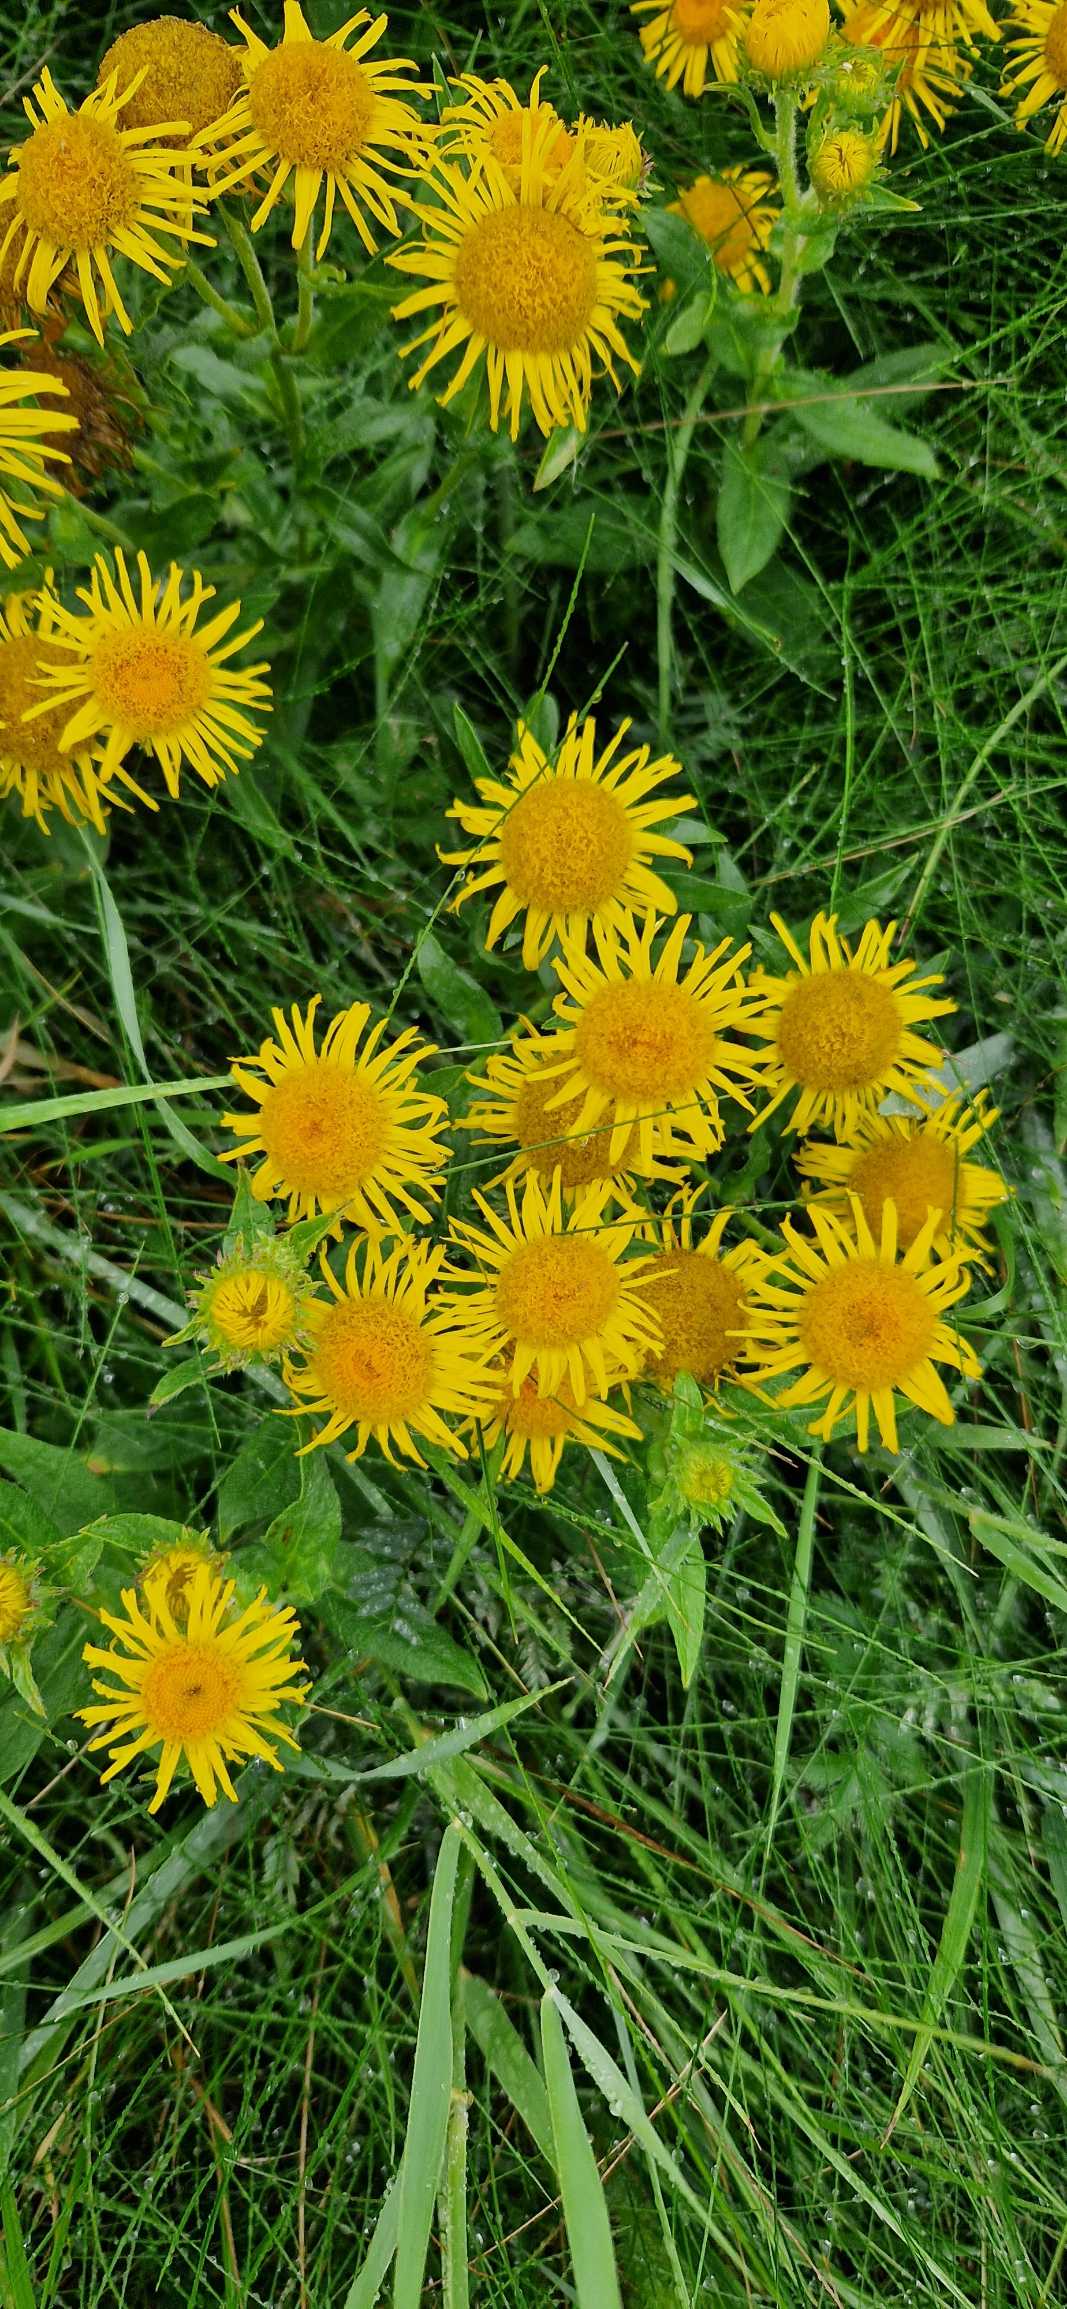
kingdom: Plantae
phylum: Tracheophyta
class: Magnoliopsida
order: Asterales
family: Asteraceae
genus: Pentanema
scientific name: Pentanema britannicum
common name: Soløje-alant
